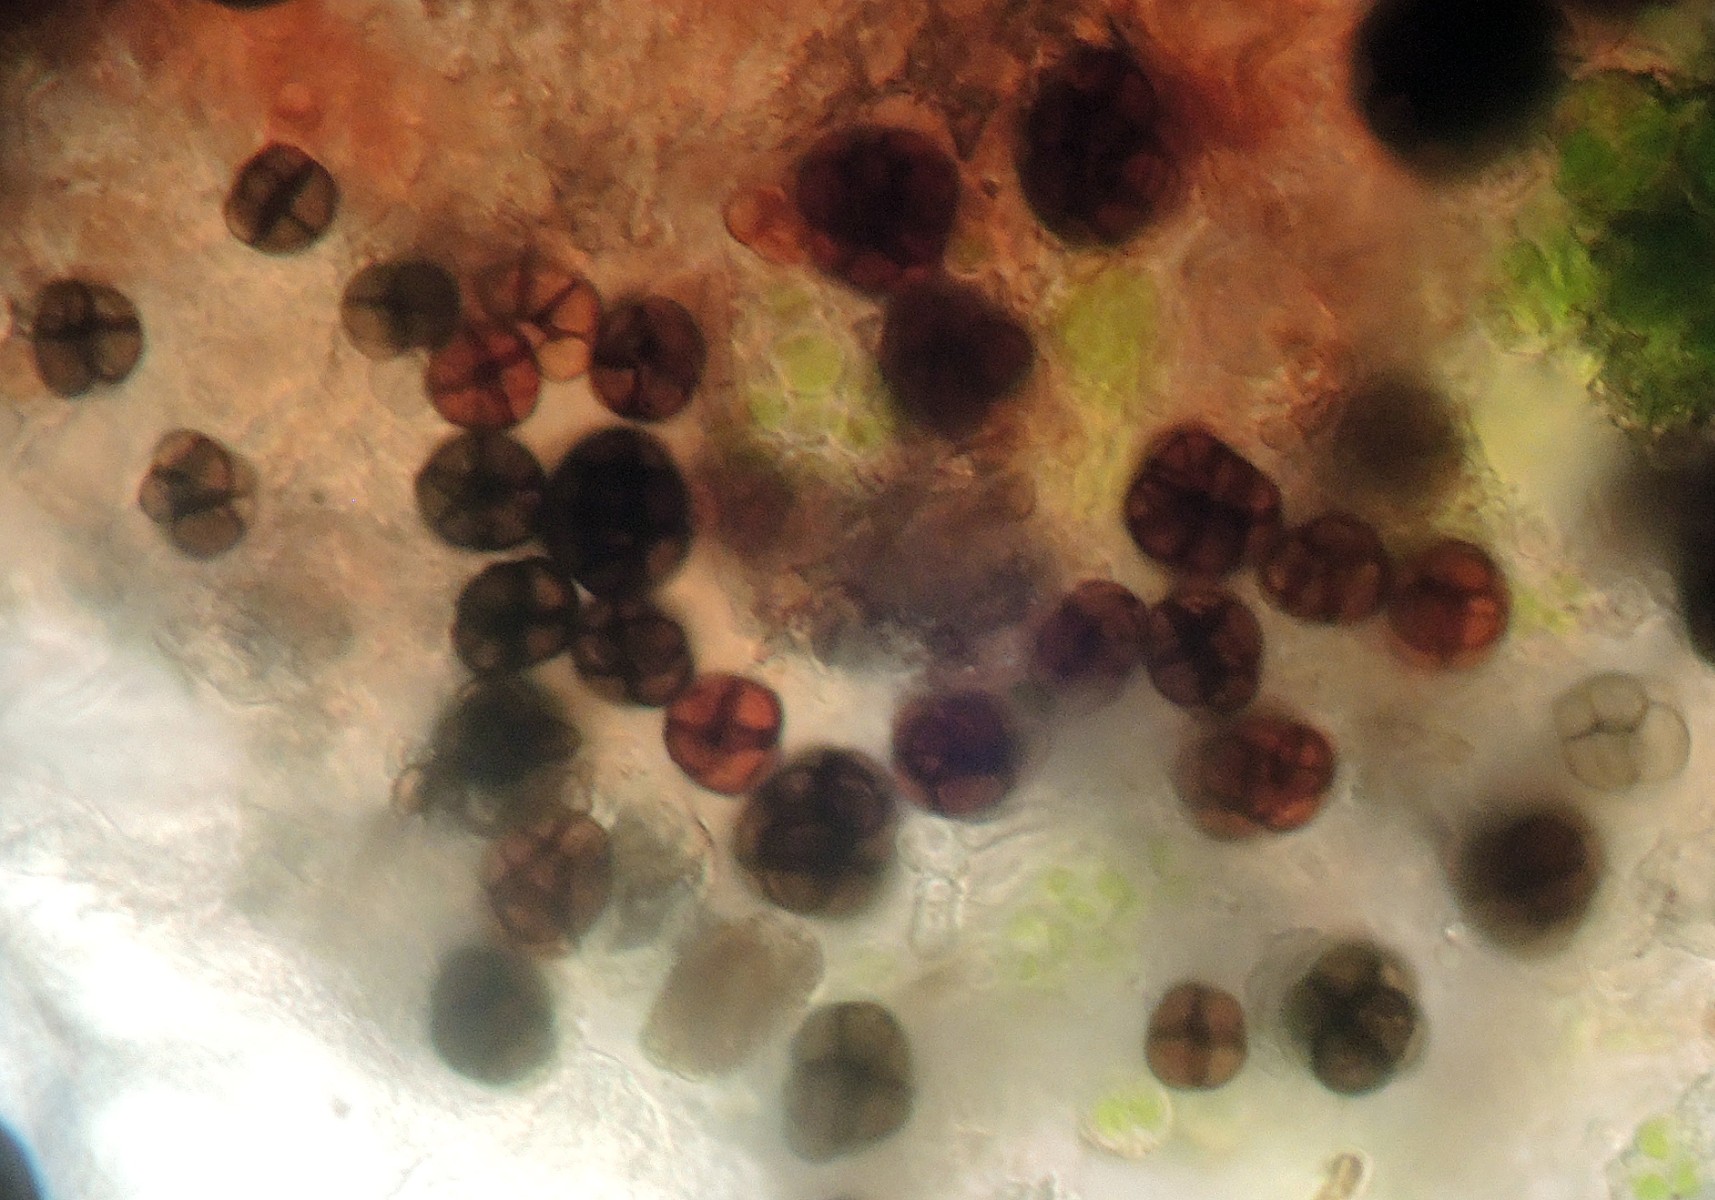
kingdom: Fungi
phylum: Ascomycota
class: Dothideomycetes
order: Dothideales
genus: Monodictys
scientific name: Monodictys putredinis
